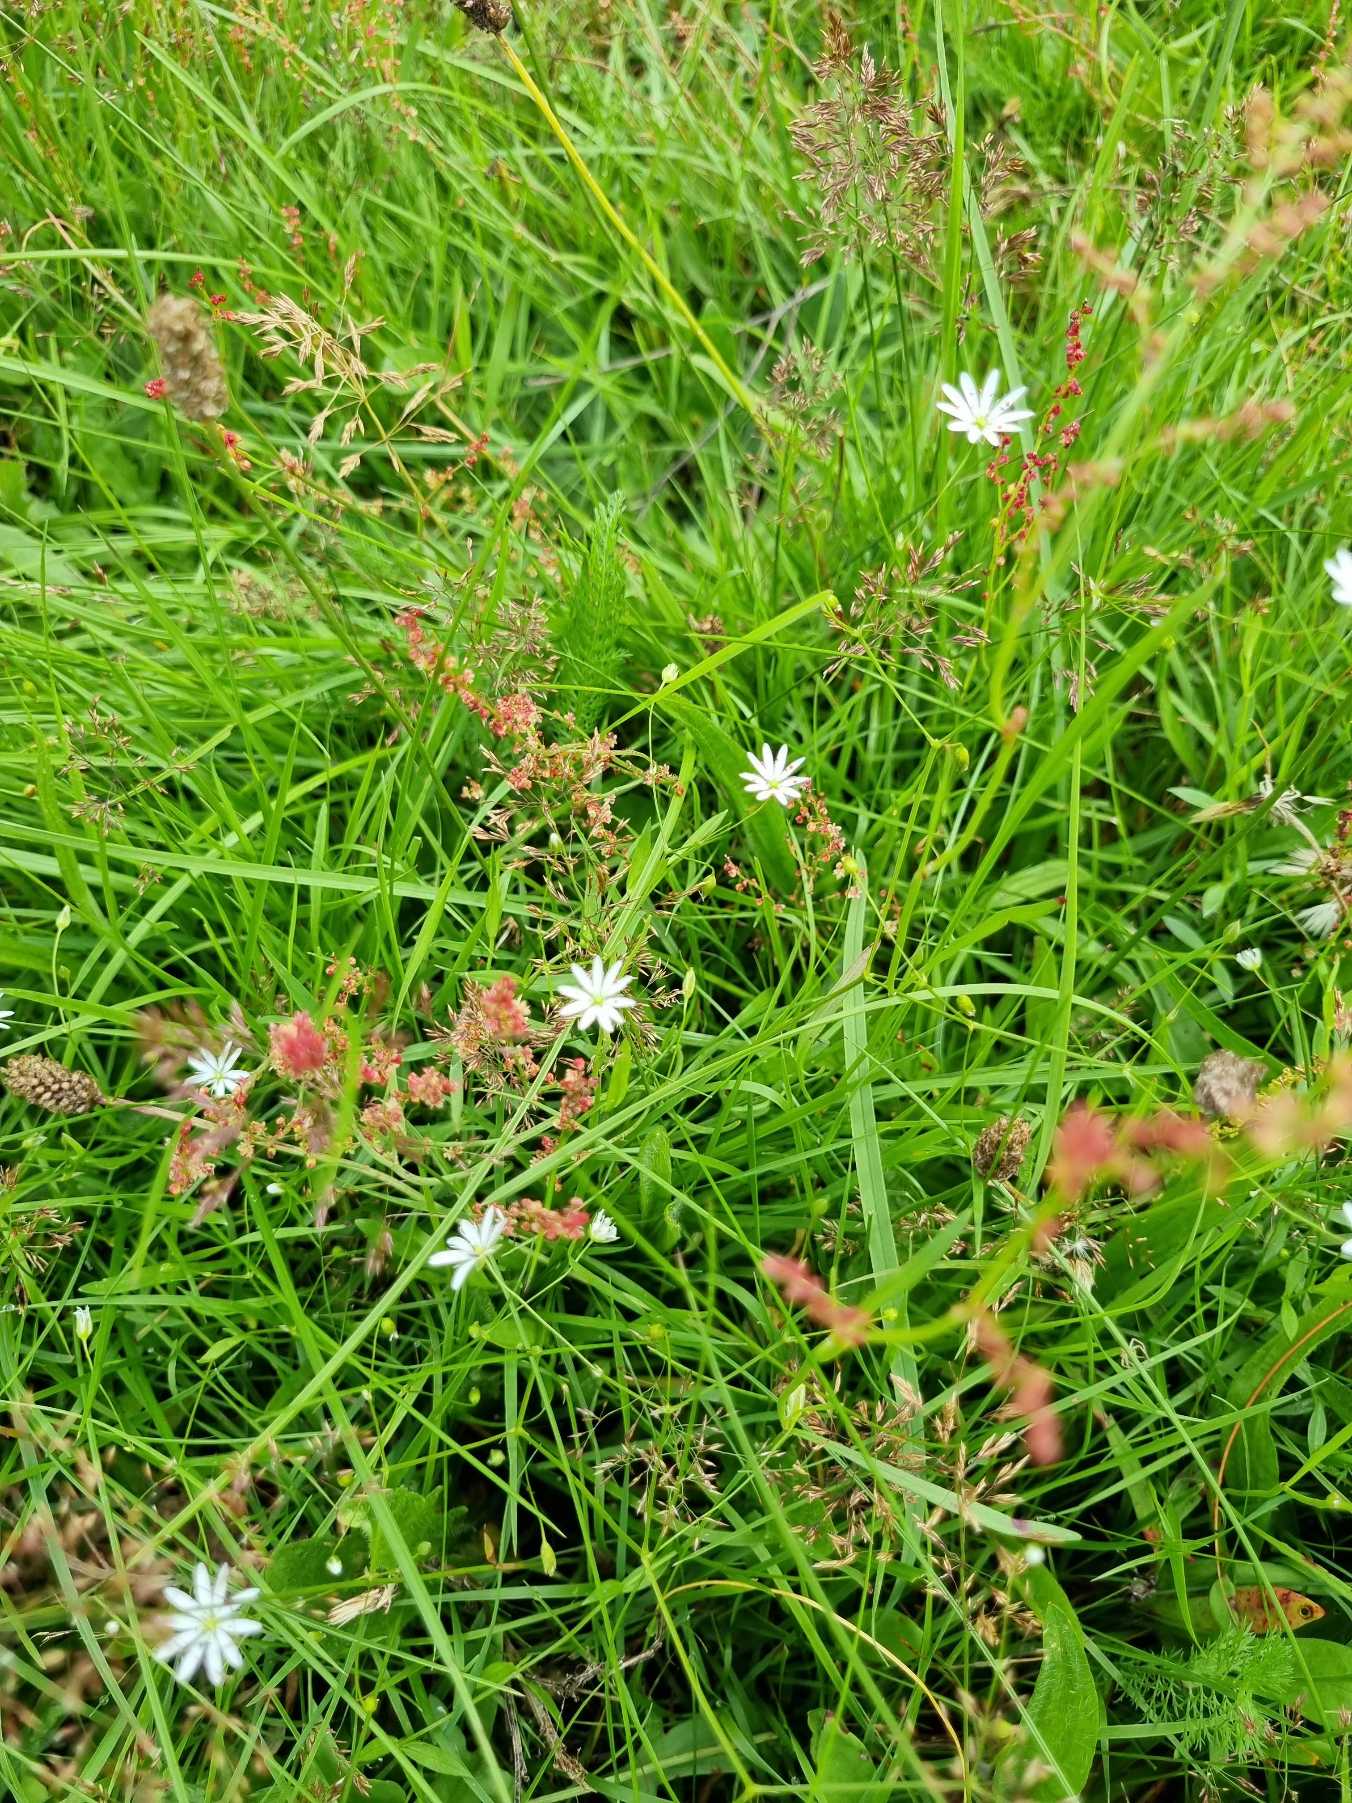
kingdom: Plantae
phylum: Tracheophyta
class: Magnoliopsida
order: Caryophyllales
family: Caryophyllaceae
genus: Stellaria
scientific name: Stellaria graminea
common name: Græsbladet fladstjerne
